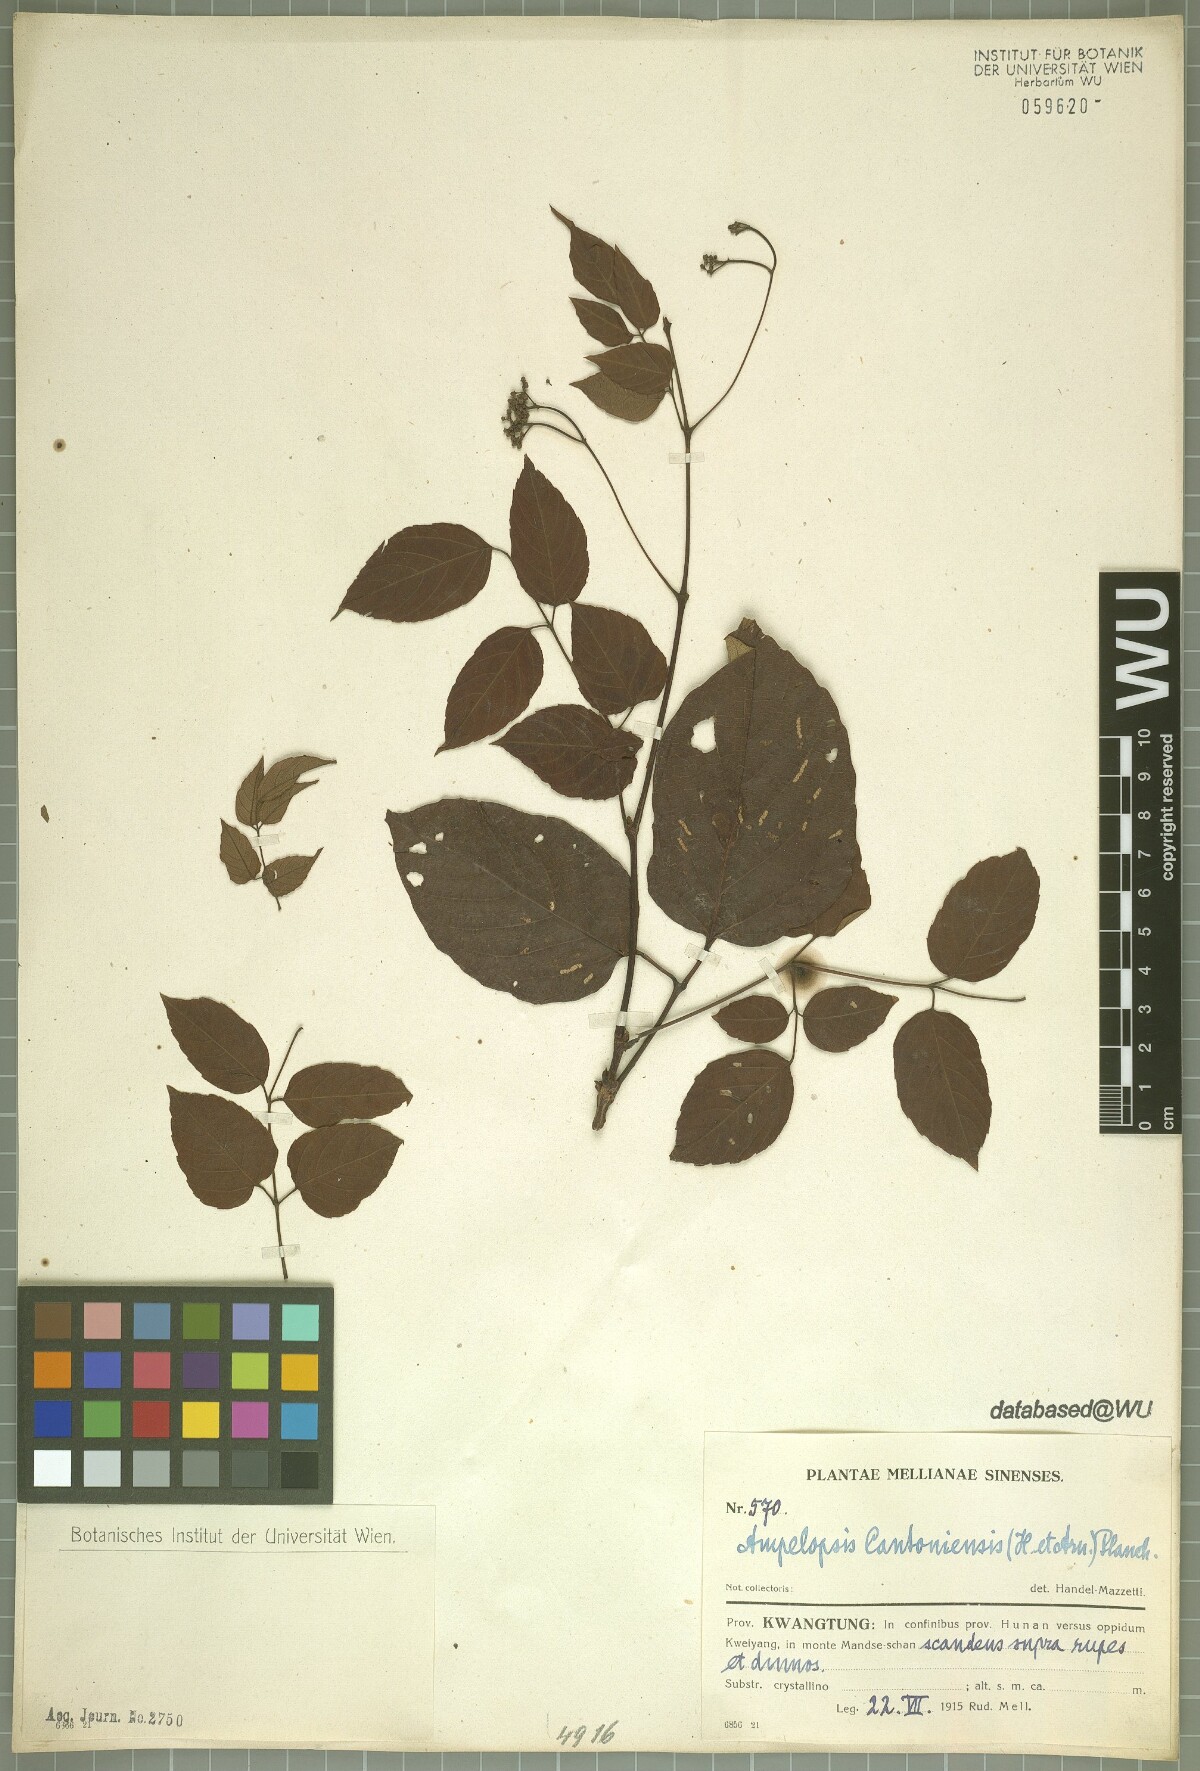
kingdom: Plantae
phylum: Tracheophyta
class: Magnoliopsida
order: Vitales
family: Vitaceae
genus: Nekemias
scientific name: Nekemias cantoniensis
